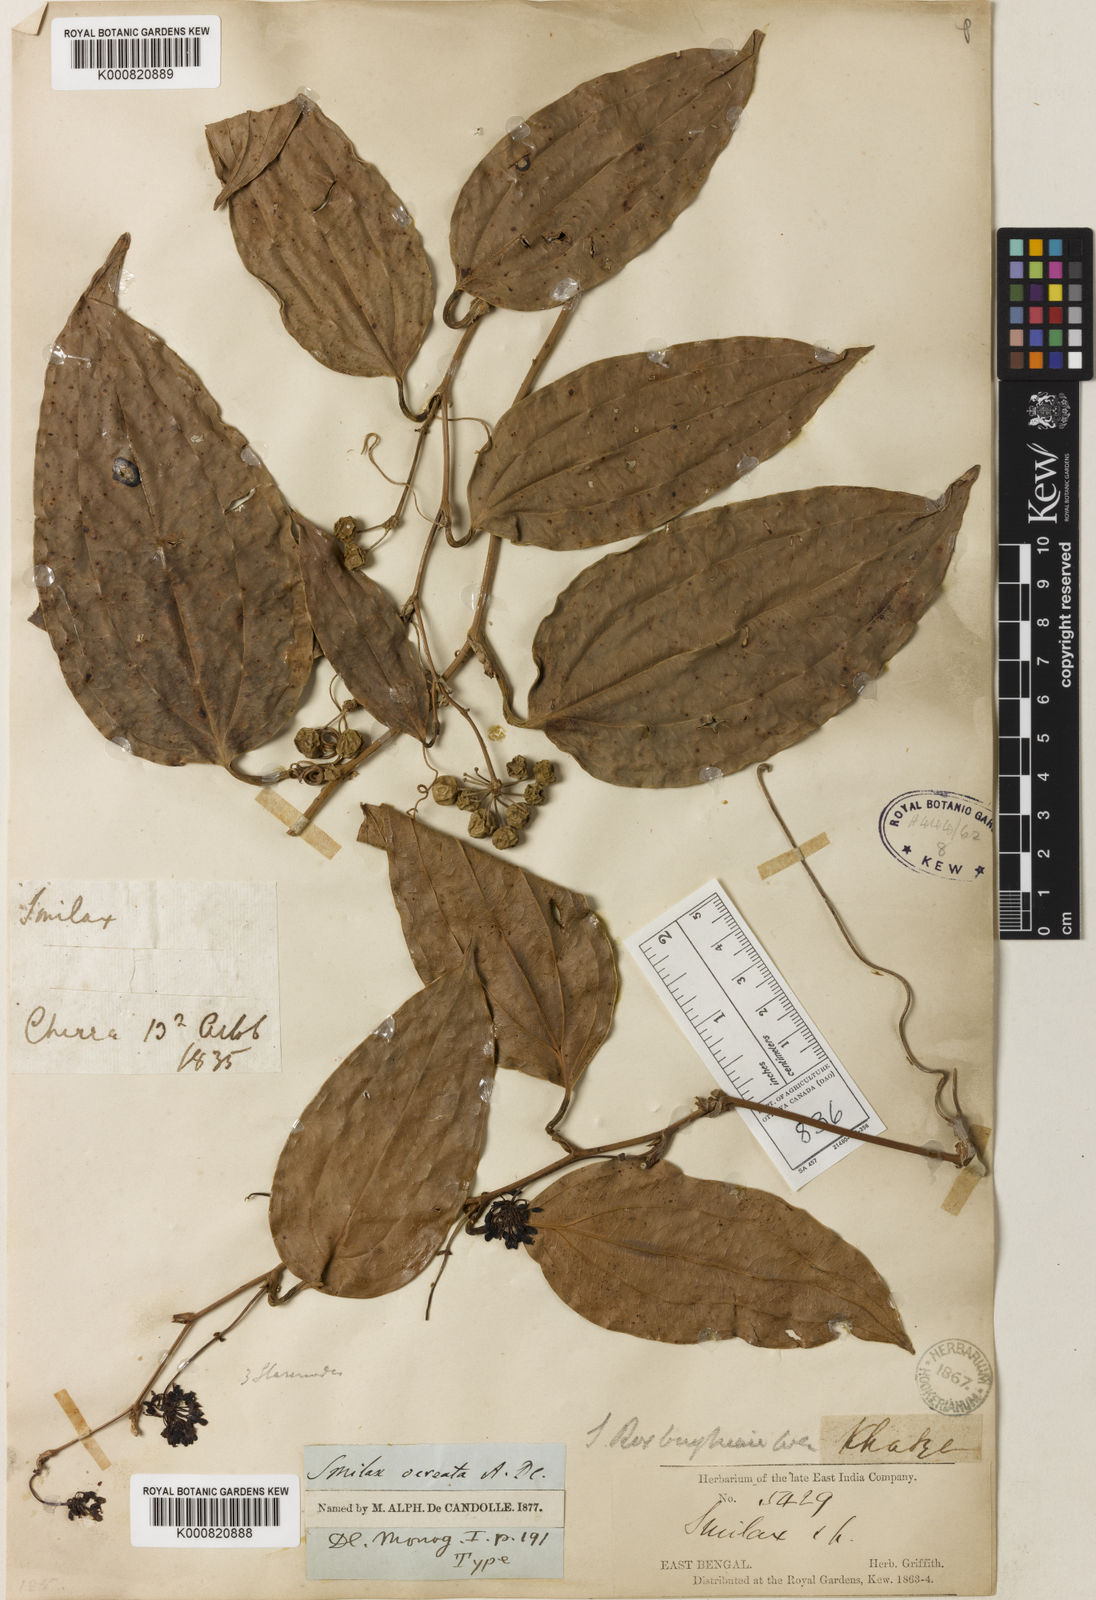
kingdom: Plantae
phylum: Tracheophyta
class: Liliopsida
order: Liliales
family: Smilacaceae
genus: Smilax
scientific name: Smilax ocreata
